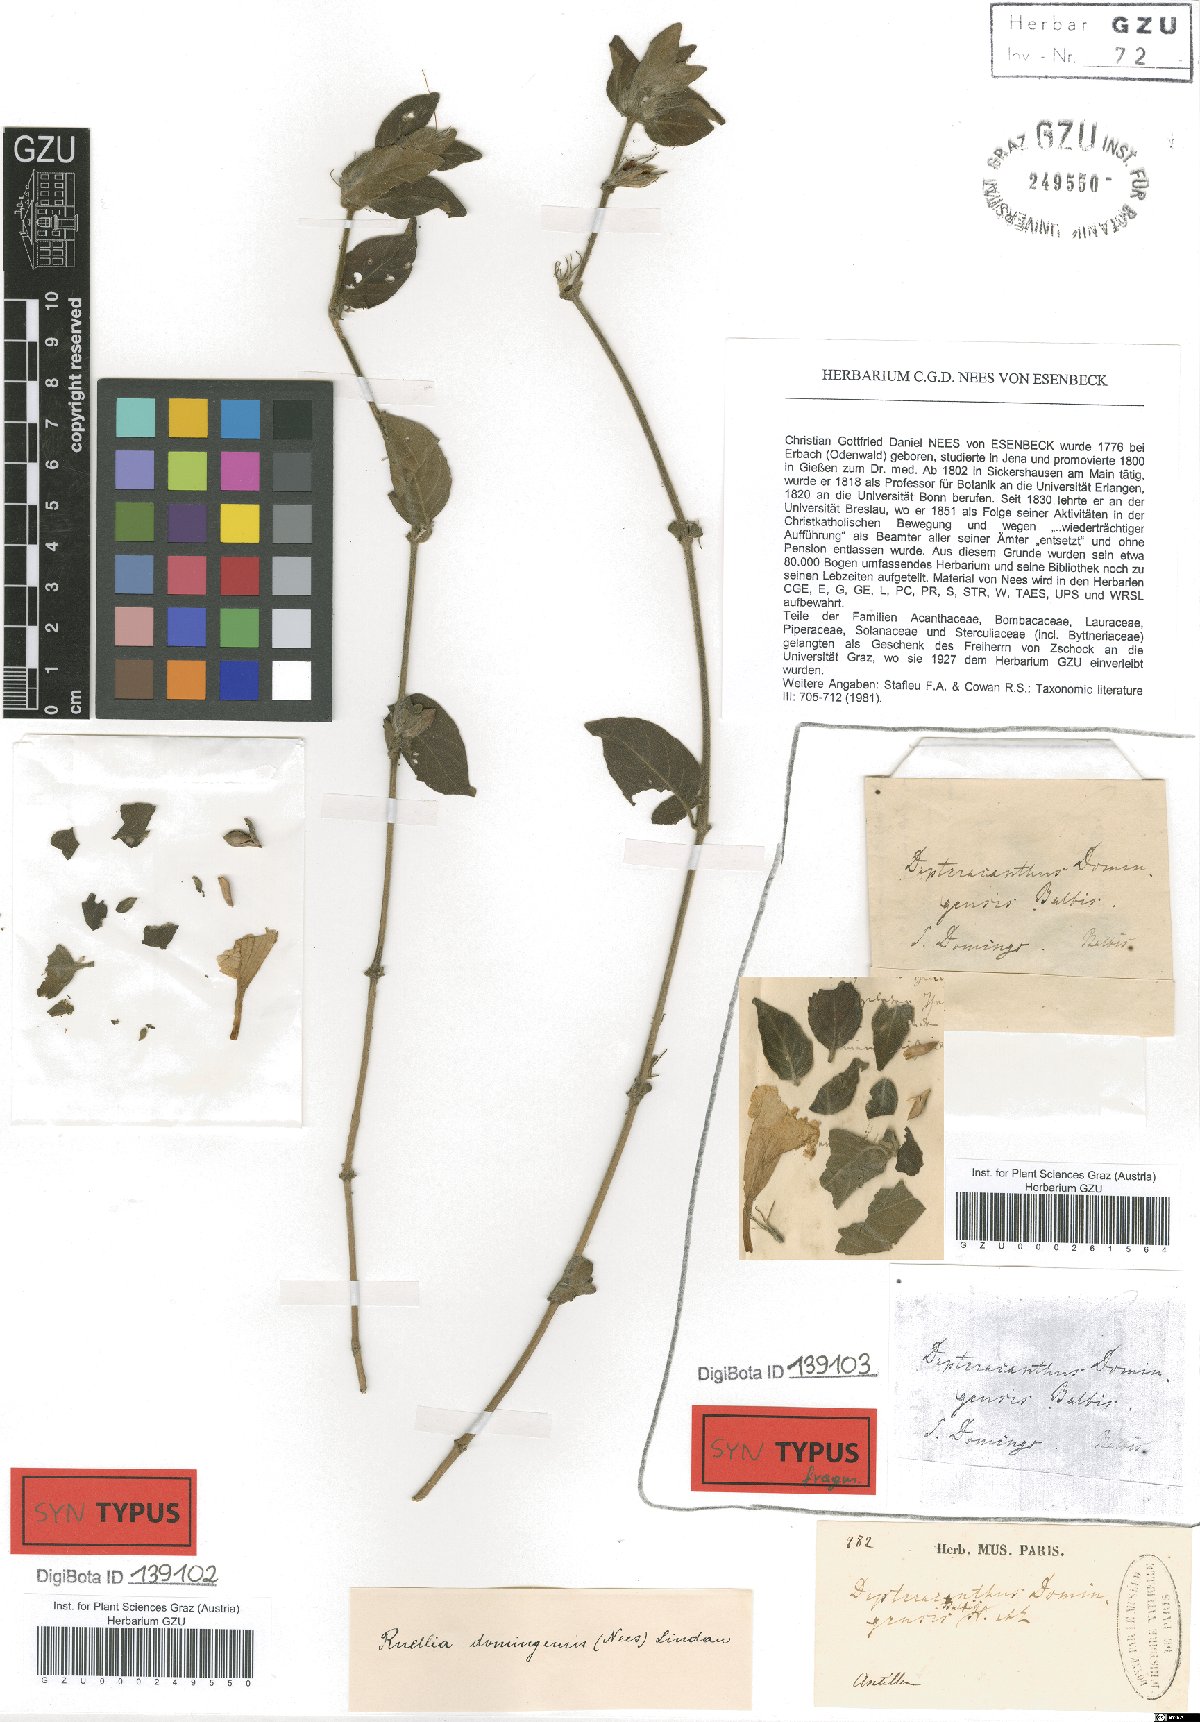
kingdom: Plantae
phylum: Tracheophyta
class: Magnoliopsida
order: Lamiales
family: Acanthaceae
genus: Ruellia
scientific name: Ruellia domingensis
